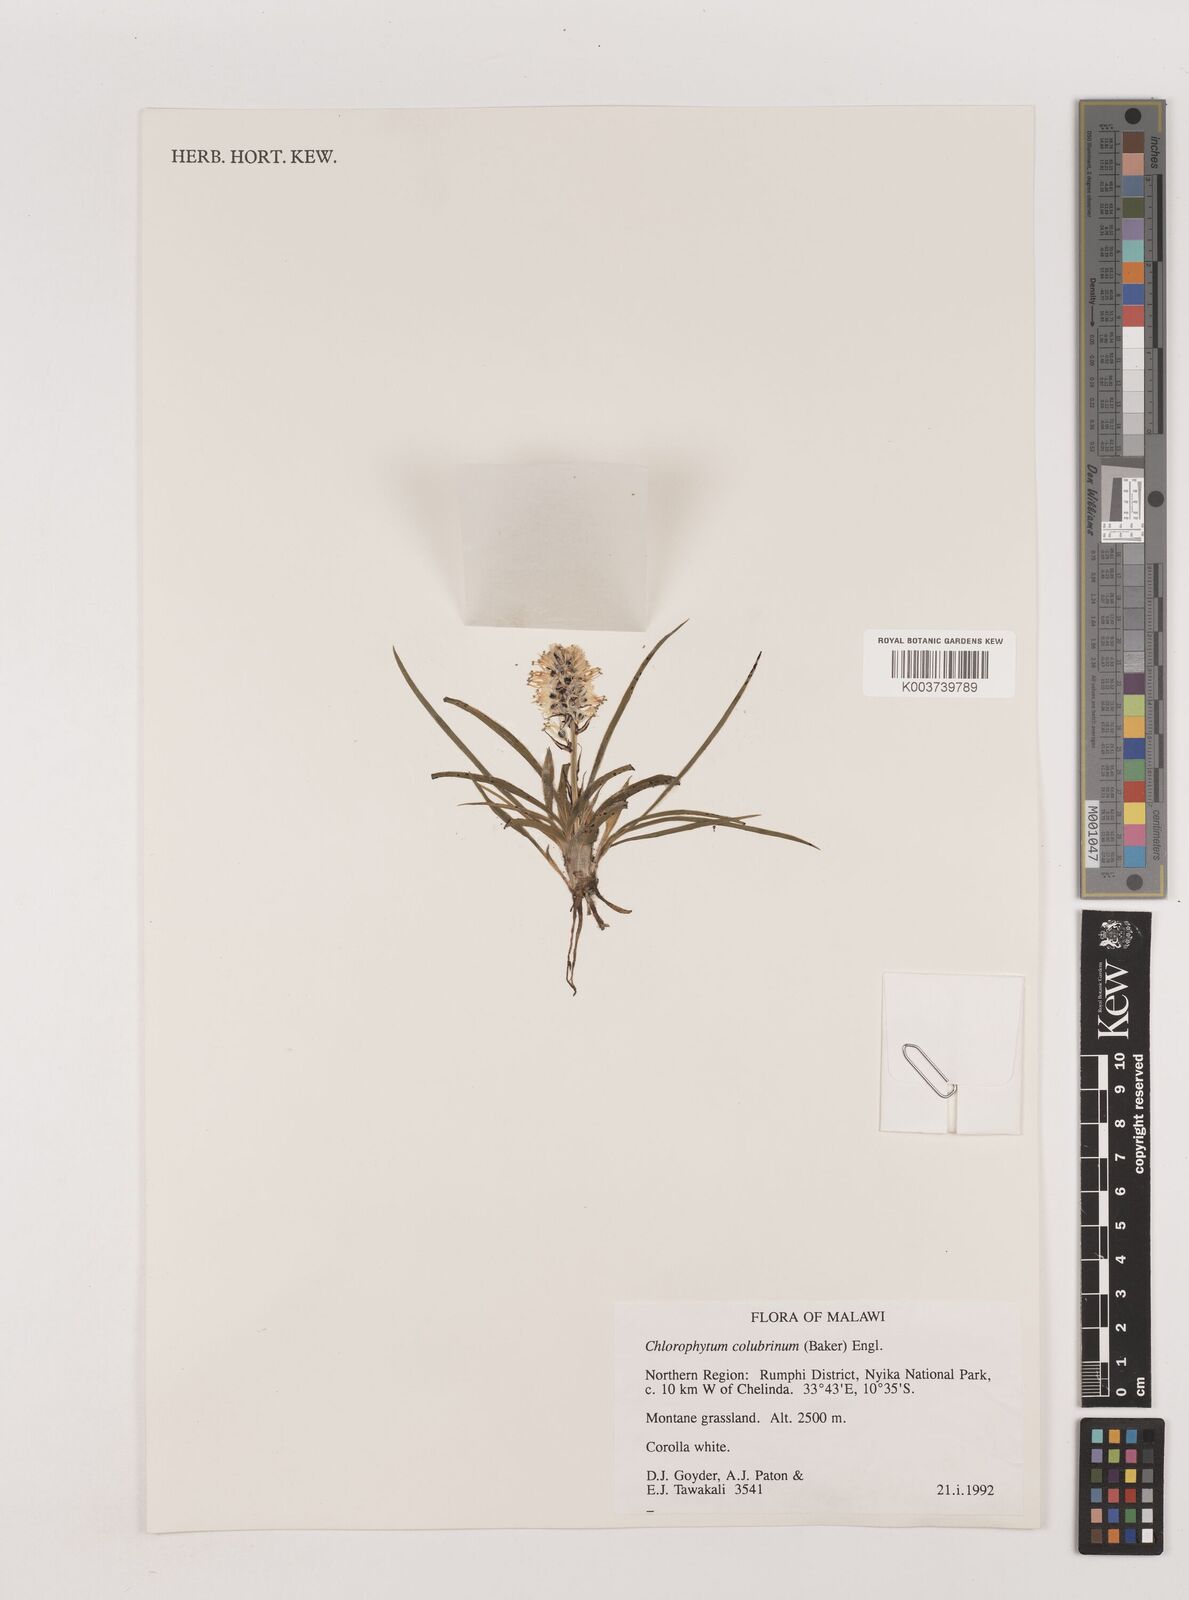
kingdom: Plantae
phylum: Tracheophyta
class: Liliopsida
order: Asparagales
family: Asparagaceae
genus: Chlorophytum
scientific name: Chlorophytum colubrinum
